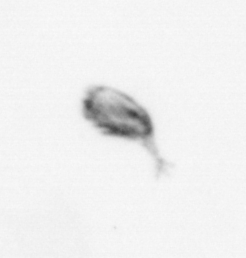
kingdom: Animalia
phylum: Arthropoda
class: Copepoda
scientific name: Copepoda
